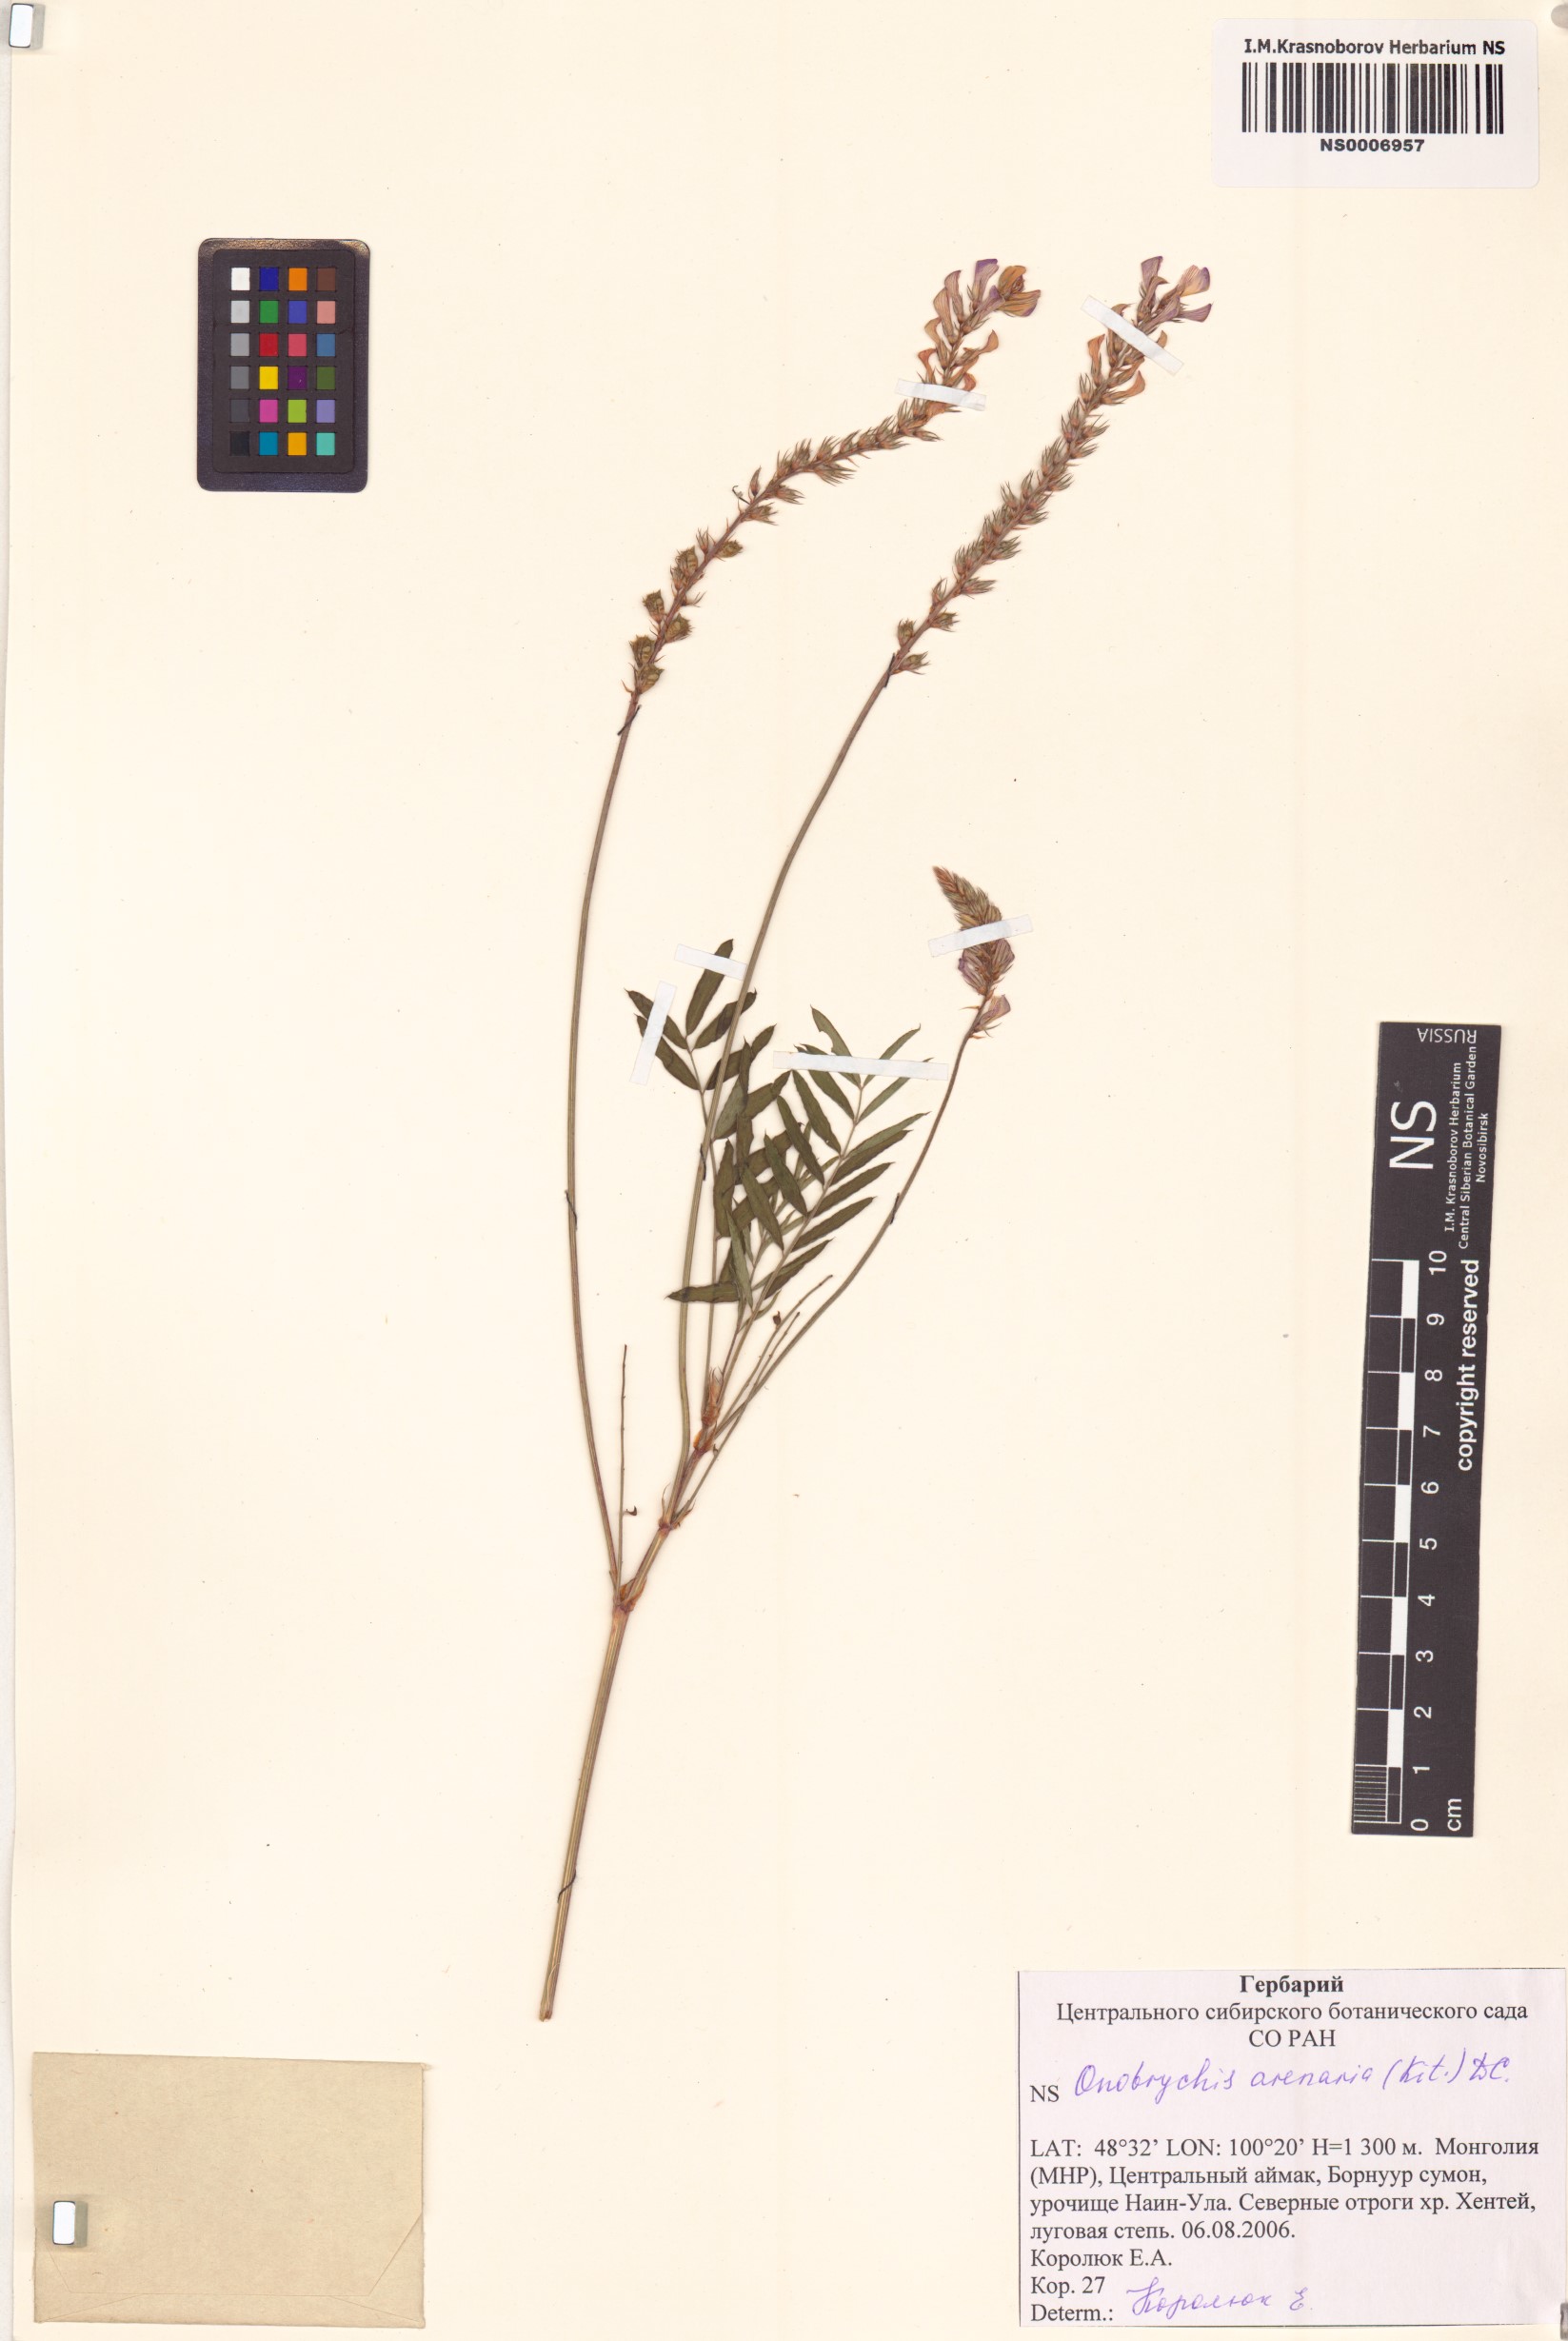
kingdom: Plantae
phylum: Tracheophyta
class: Magnoliopsida
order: Fabales
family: Fabaceae
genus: Onobrychis
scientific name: Onobrychis arenaria
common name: Sand esparcet
